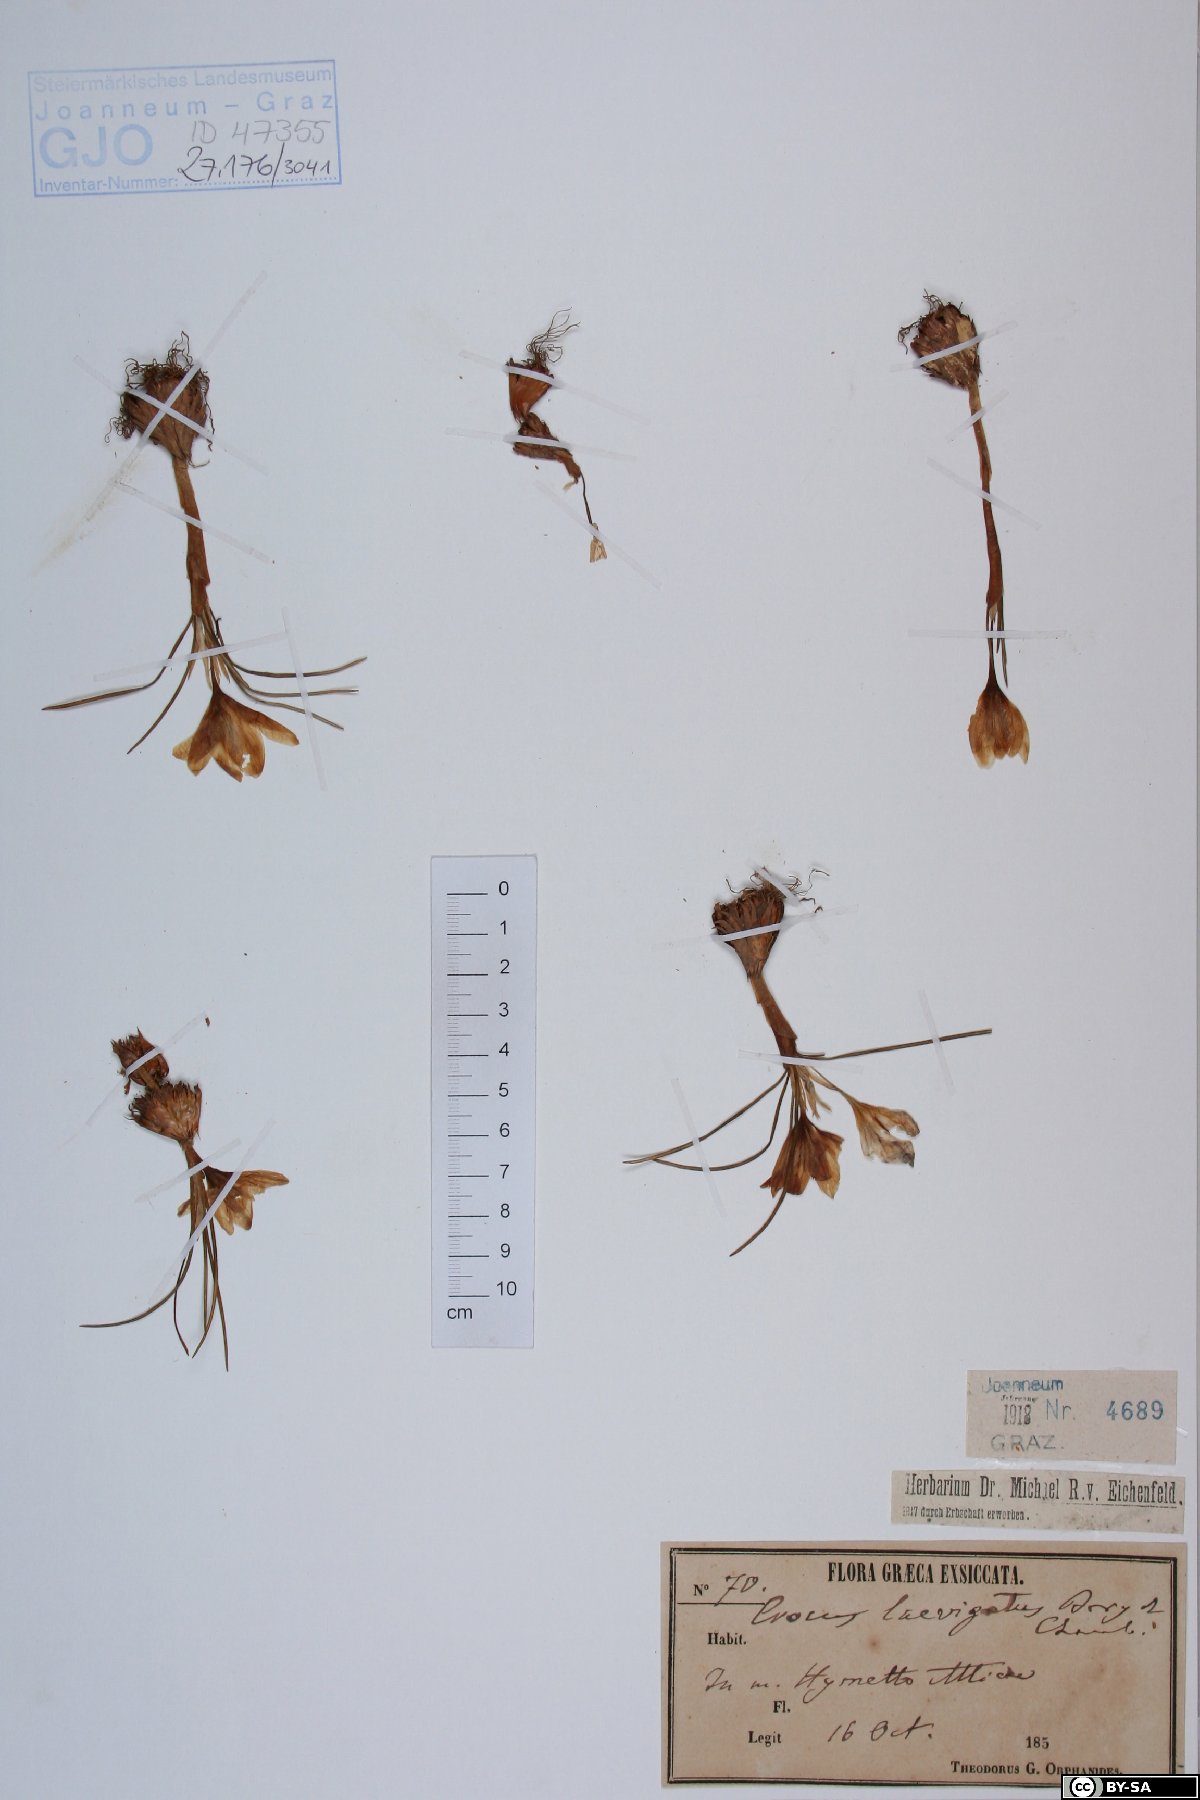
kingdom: Plantae
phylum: Tracheophyta
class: Liliopsida
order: Asparagales
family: Iridaceae
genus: Crocus
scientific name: Crocus laevigatus
